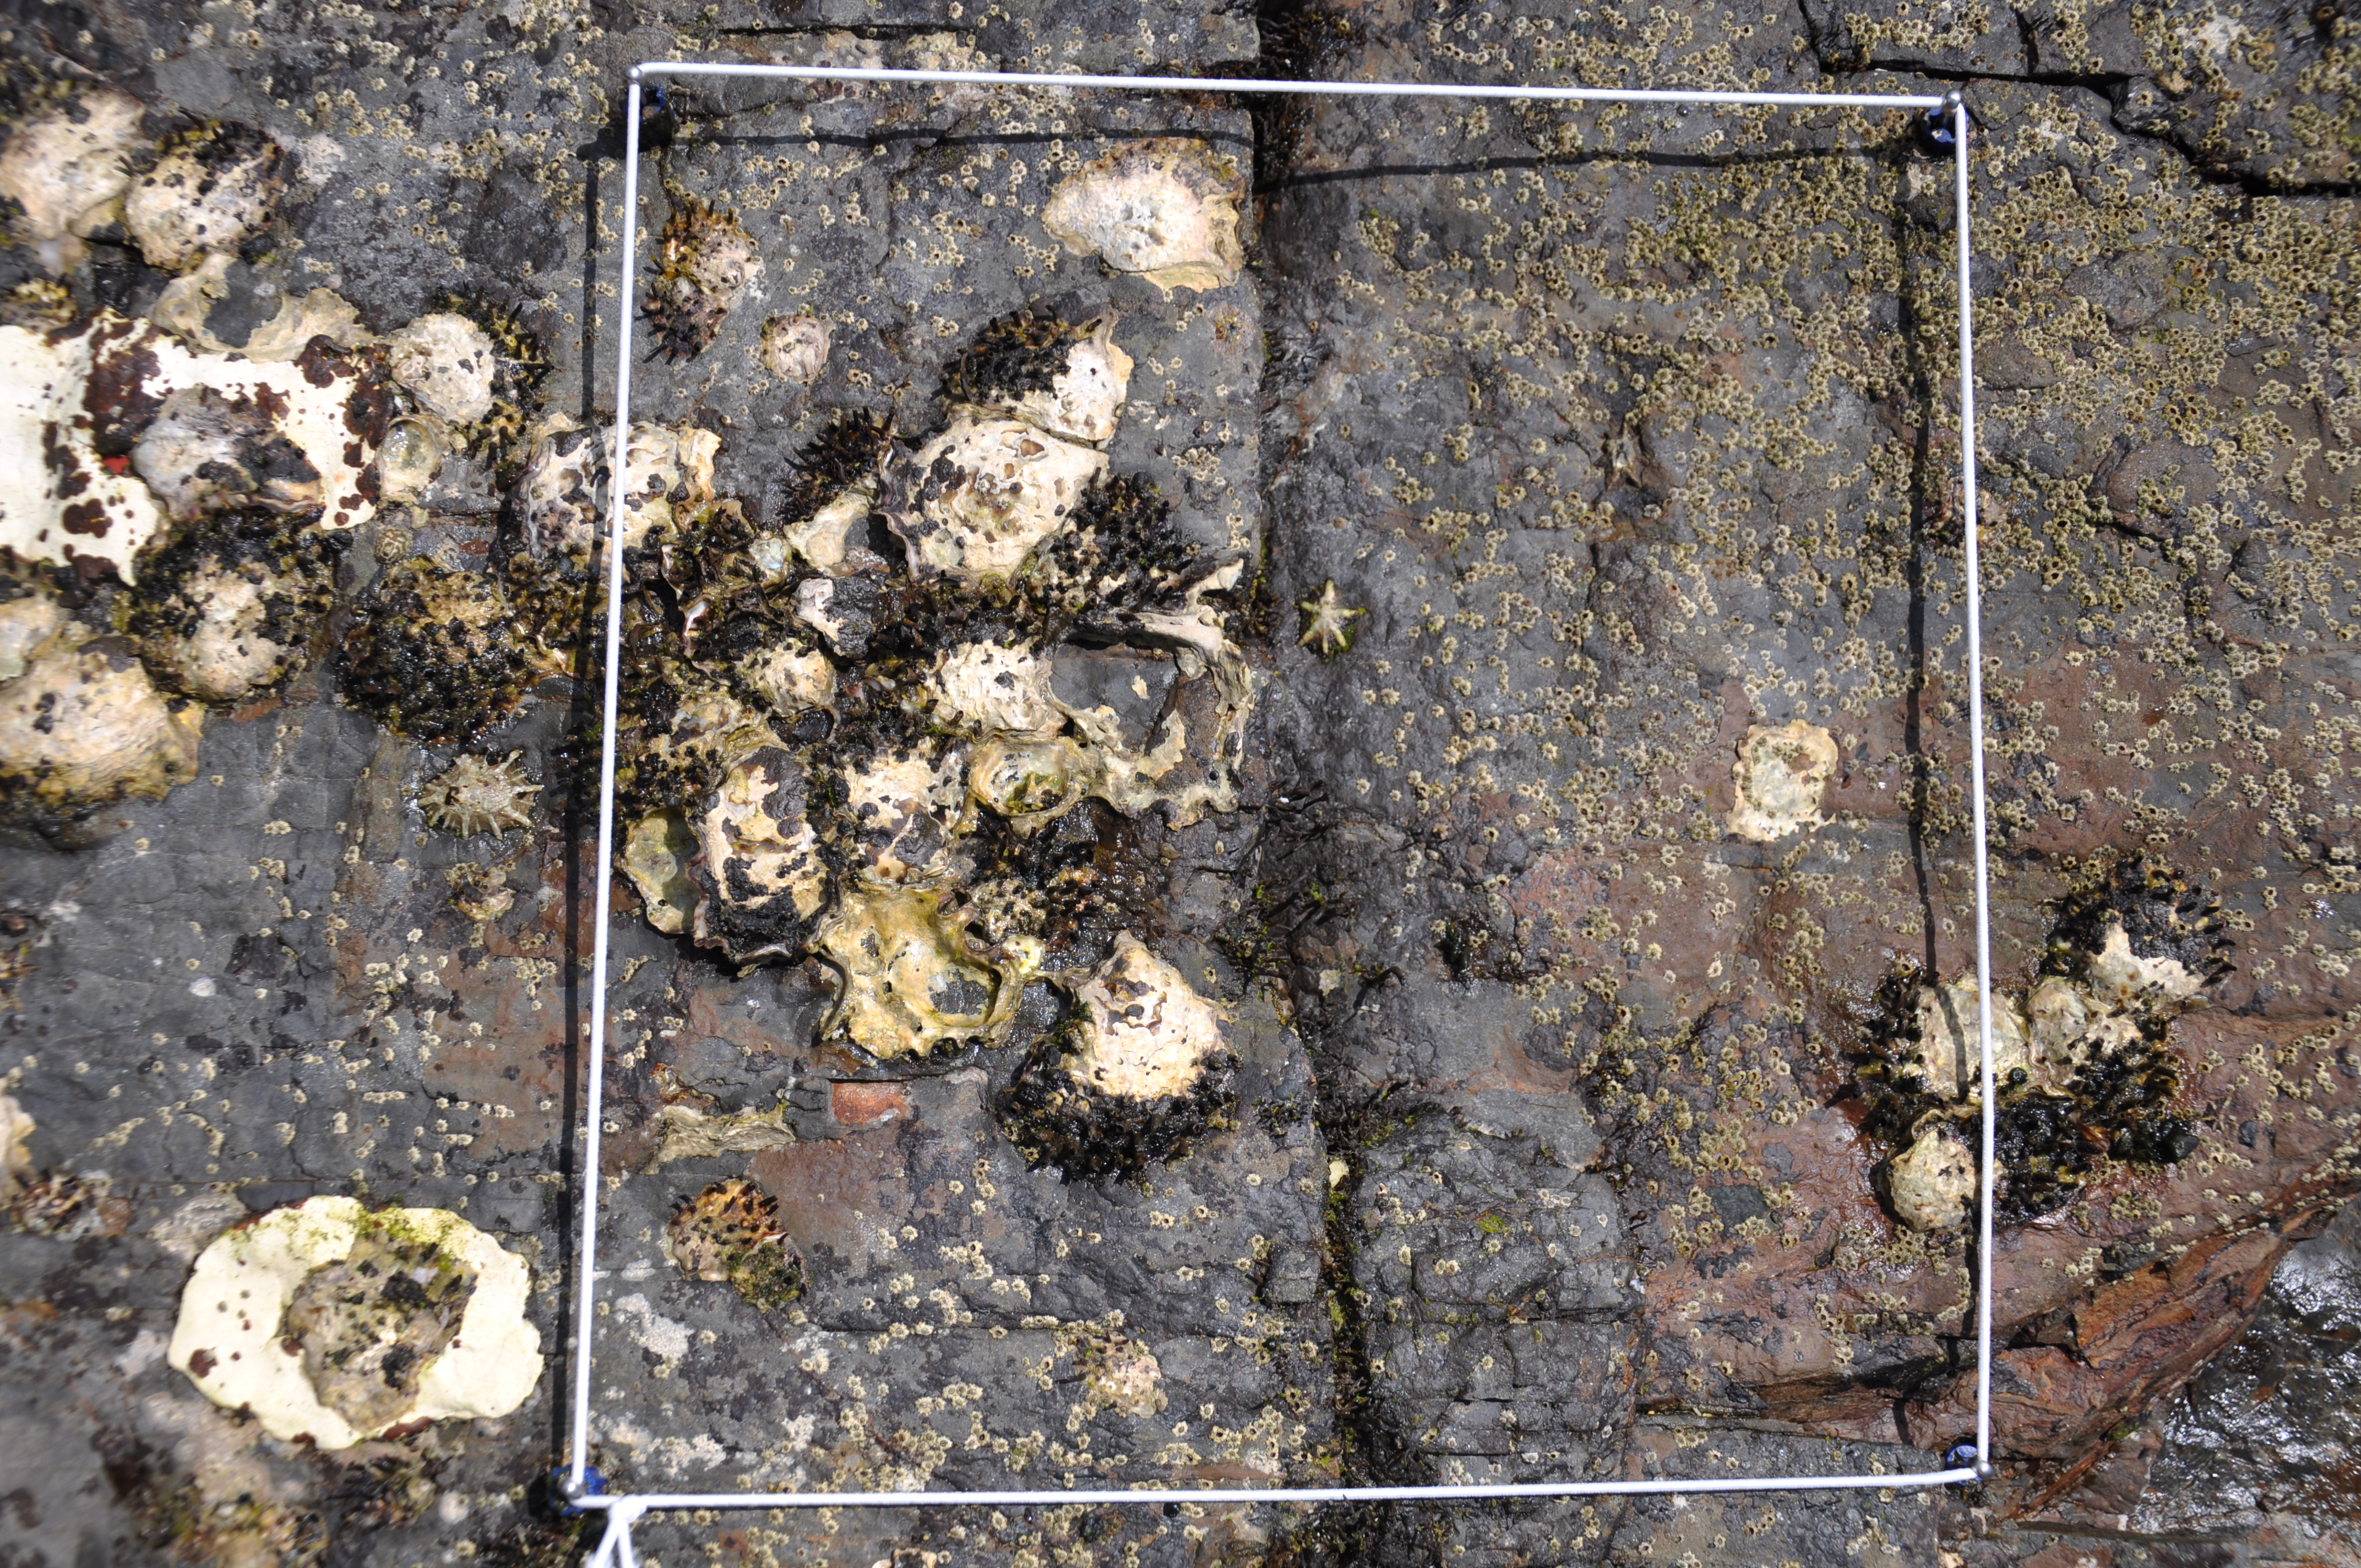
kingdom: Chromista
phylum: Ochrophyta
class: Phaeophyceae
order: Ishigeales
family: Ishigeaceae
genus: Ishige
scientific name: Ishige okamurae
